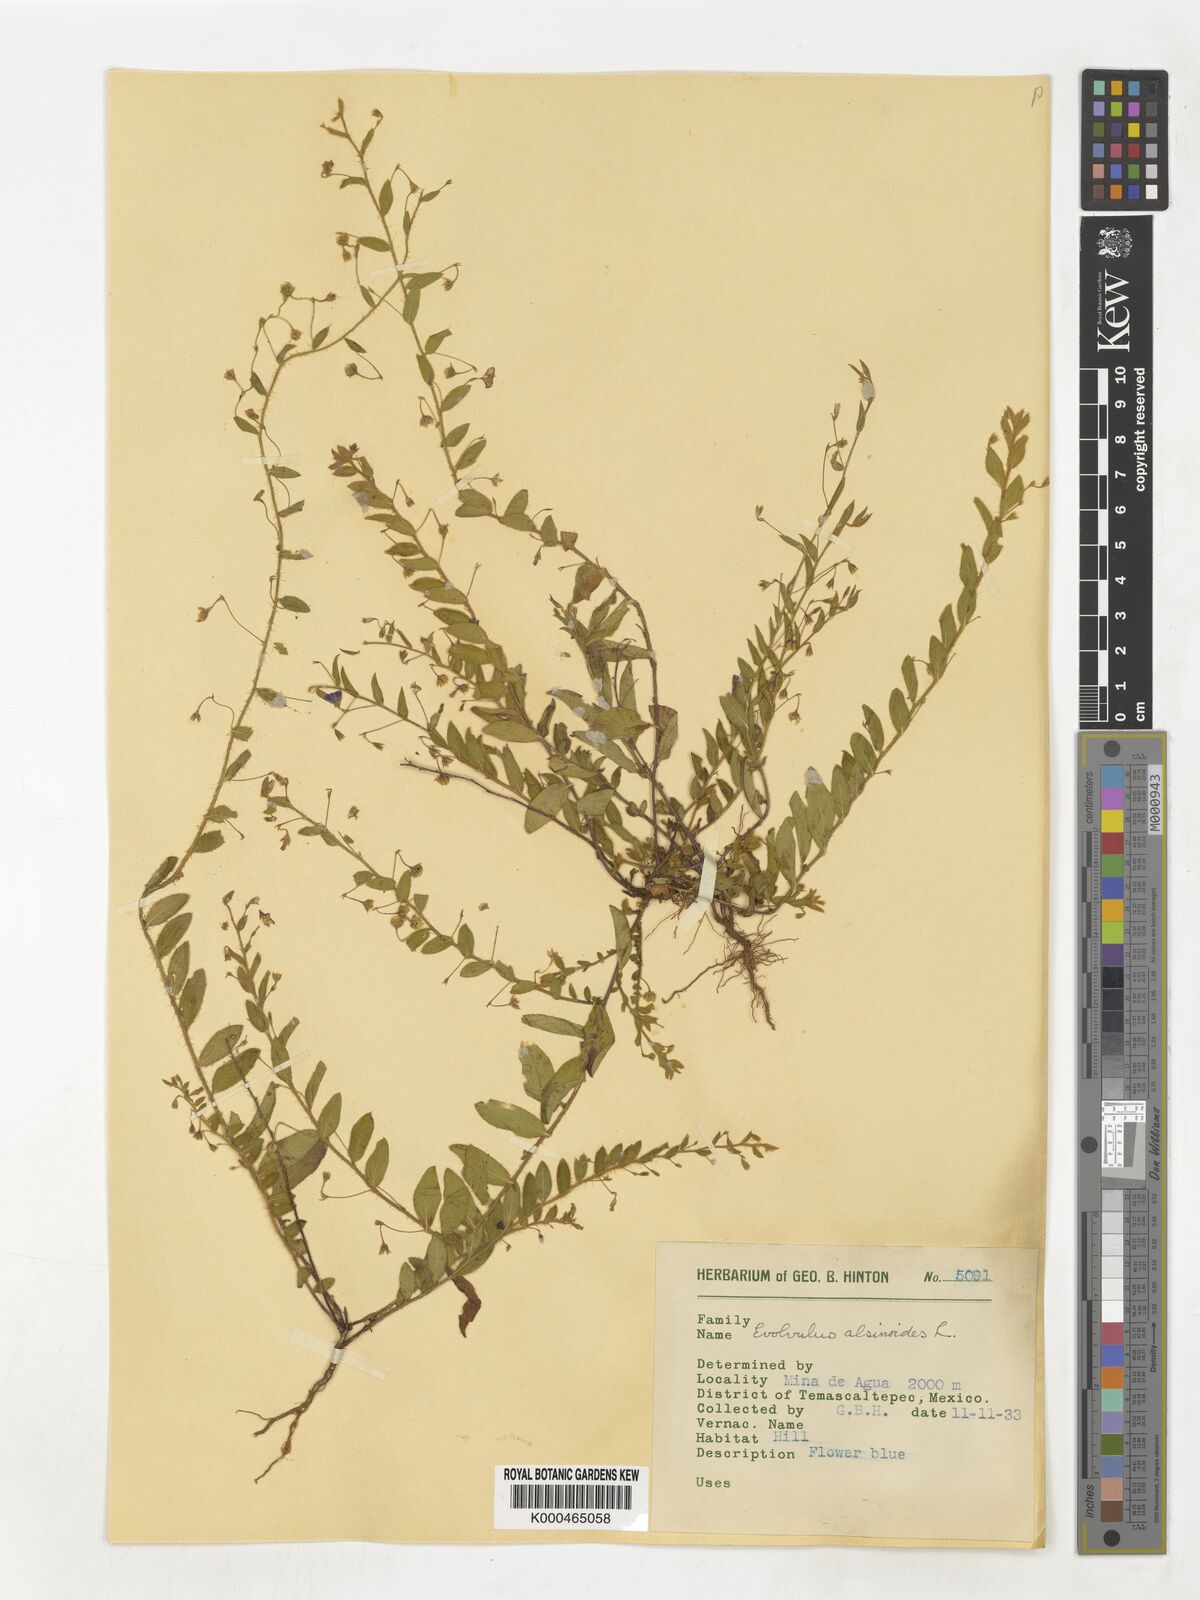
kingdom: Plantae
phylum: Tracheophyta
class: Magnoliopsida
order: Solanales
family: Convolvulaceae
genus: Evolvulus
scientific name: Evolvulus alsinoides
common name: Slender dwarf morning-glory
